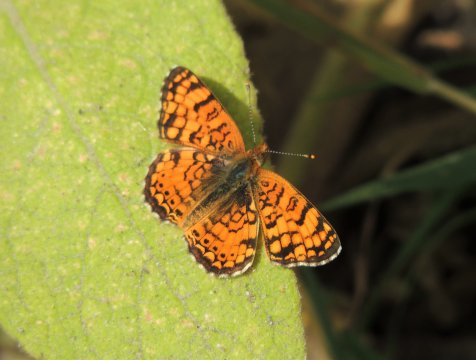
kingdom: Animalia
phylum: Arthropoda
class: Insecta
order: Lepidoptera
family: Nymphalidae
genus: Eresia
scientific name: Eresia aveyrona
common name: Mylitta Crescent
